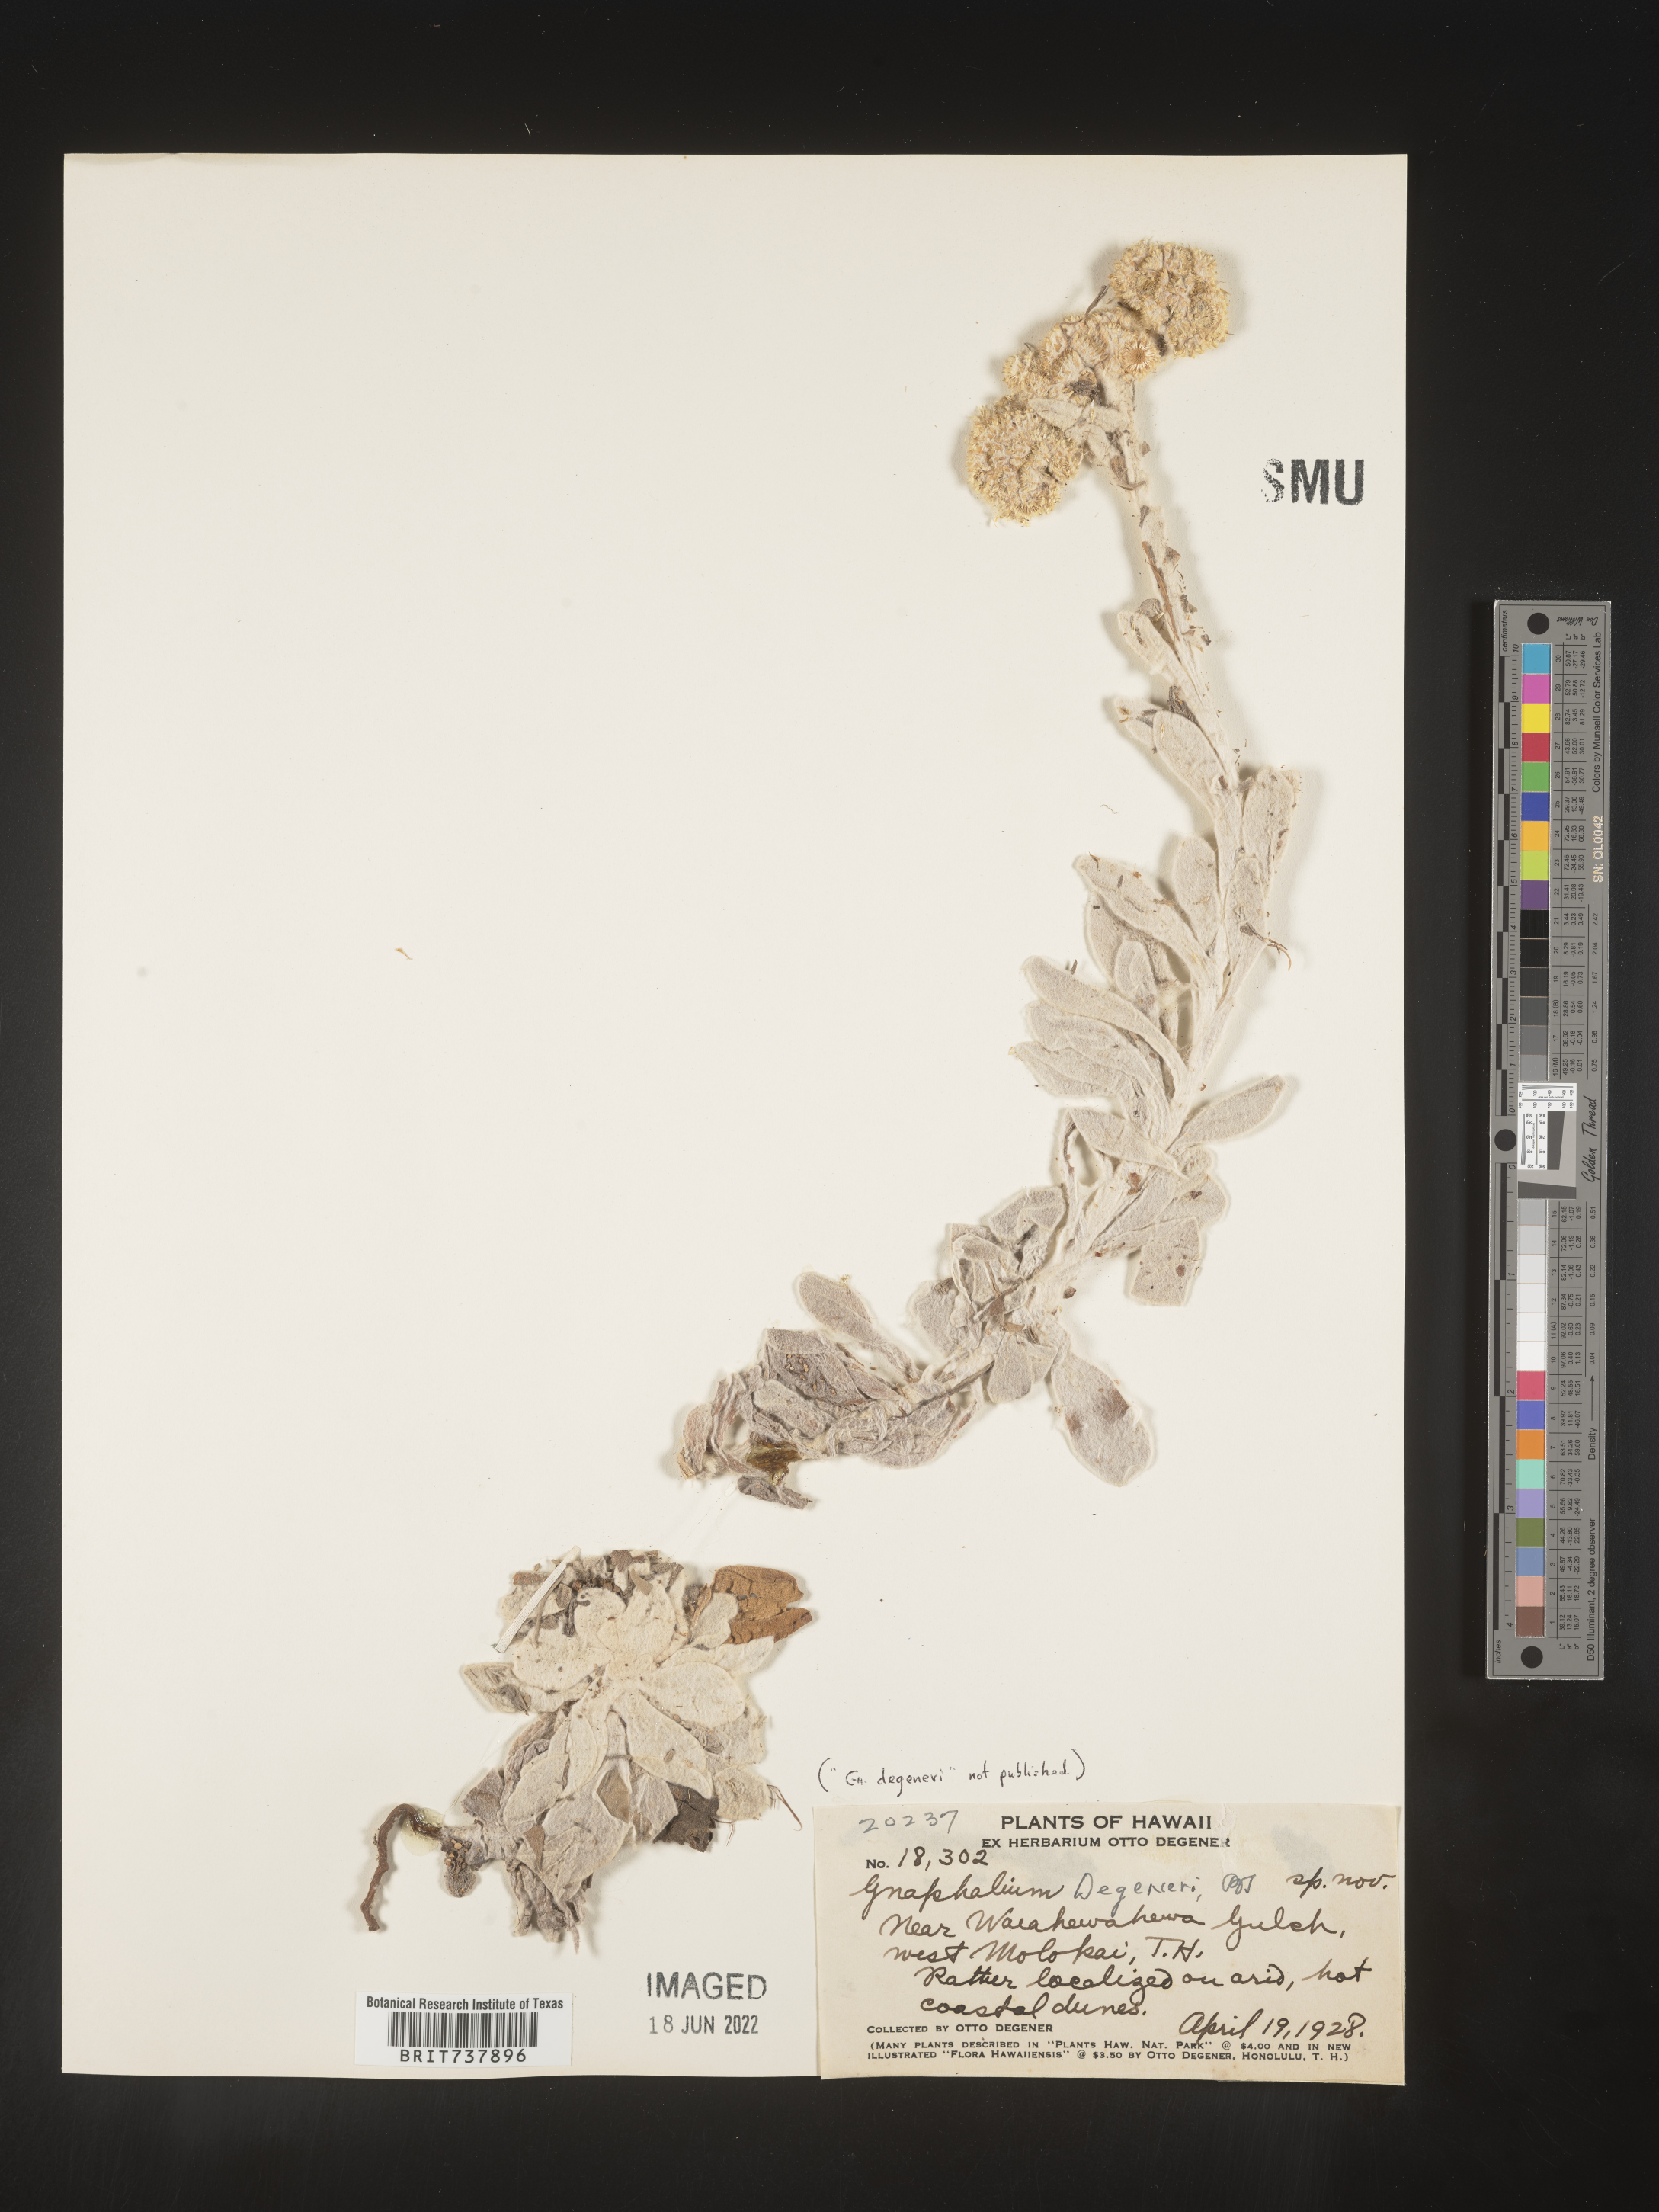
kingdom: Plantae
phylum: Tracheophyta
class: Magnoliopsida
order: Asterales
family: Asteraceae
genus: Pseudognaphalium
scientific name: Pseudognaphalium
